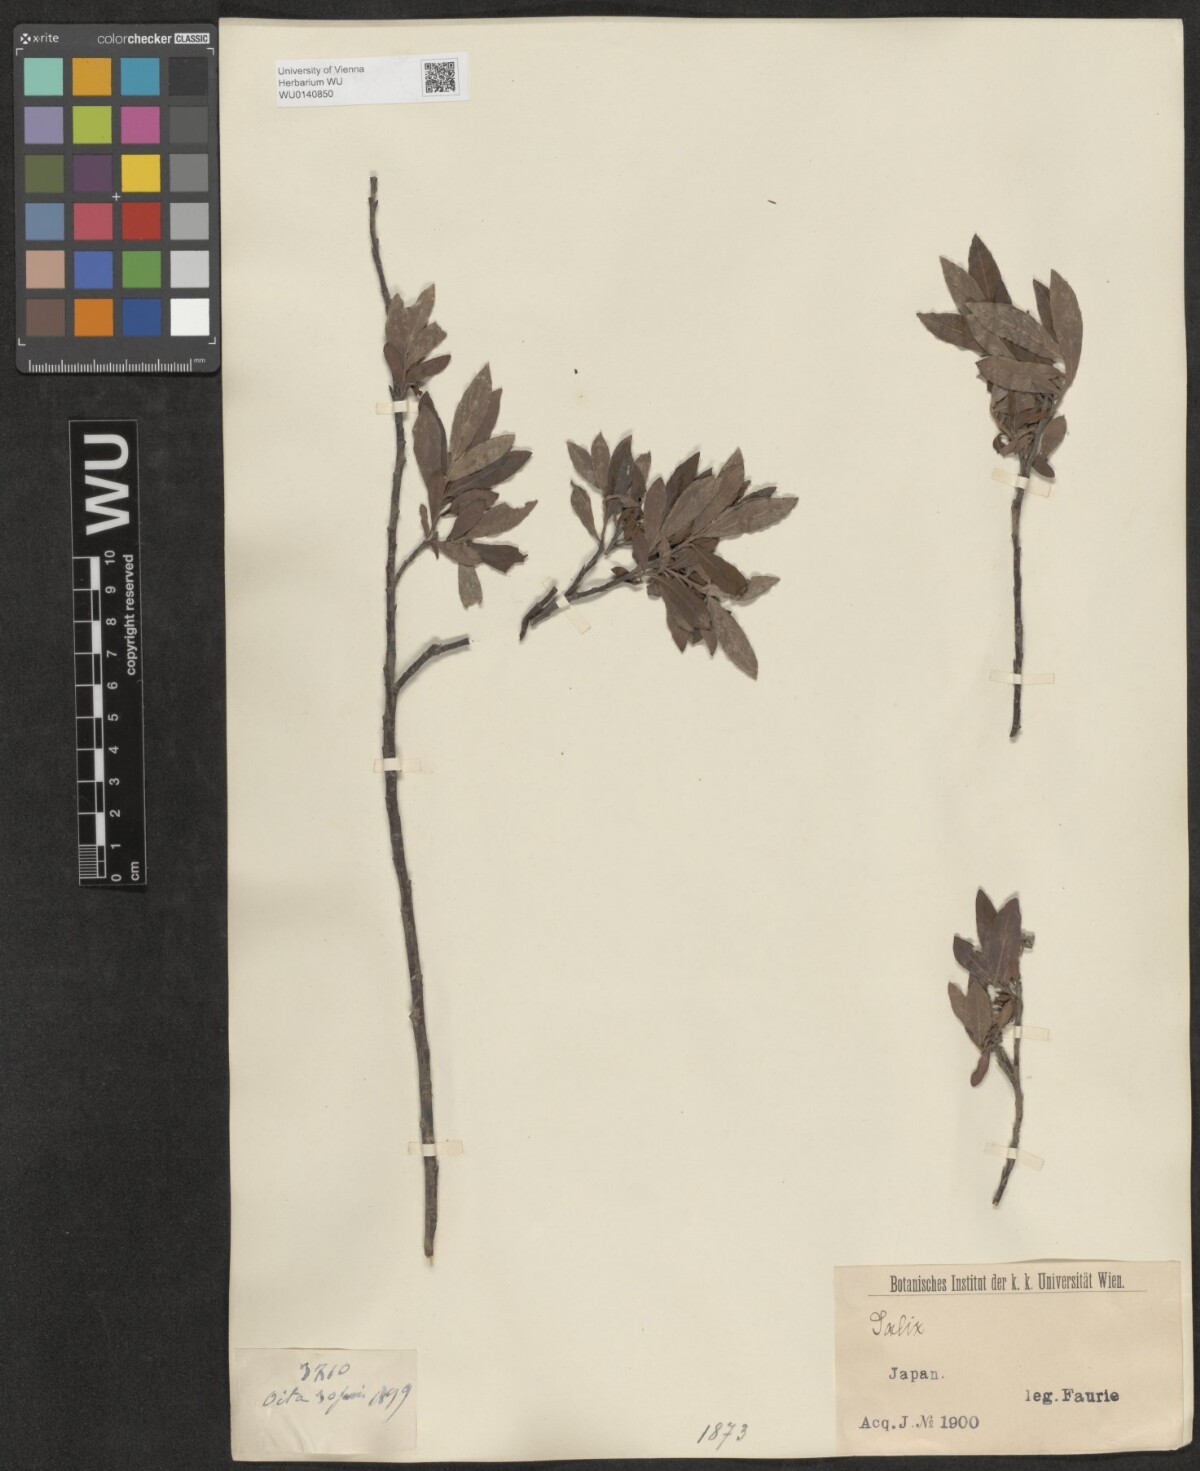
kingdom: Plantae
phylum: Tracheophyta
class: Magnoliopsida
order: Malpighiales
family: Salicaceae
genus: Salix
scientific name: Salix
